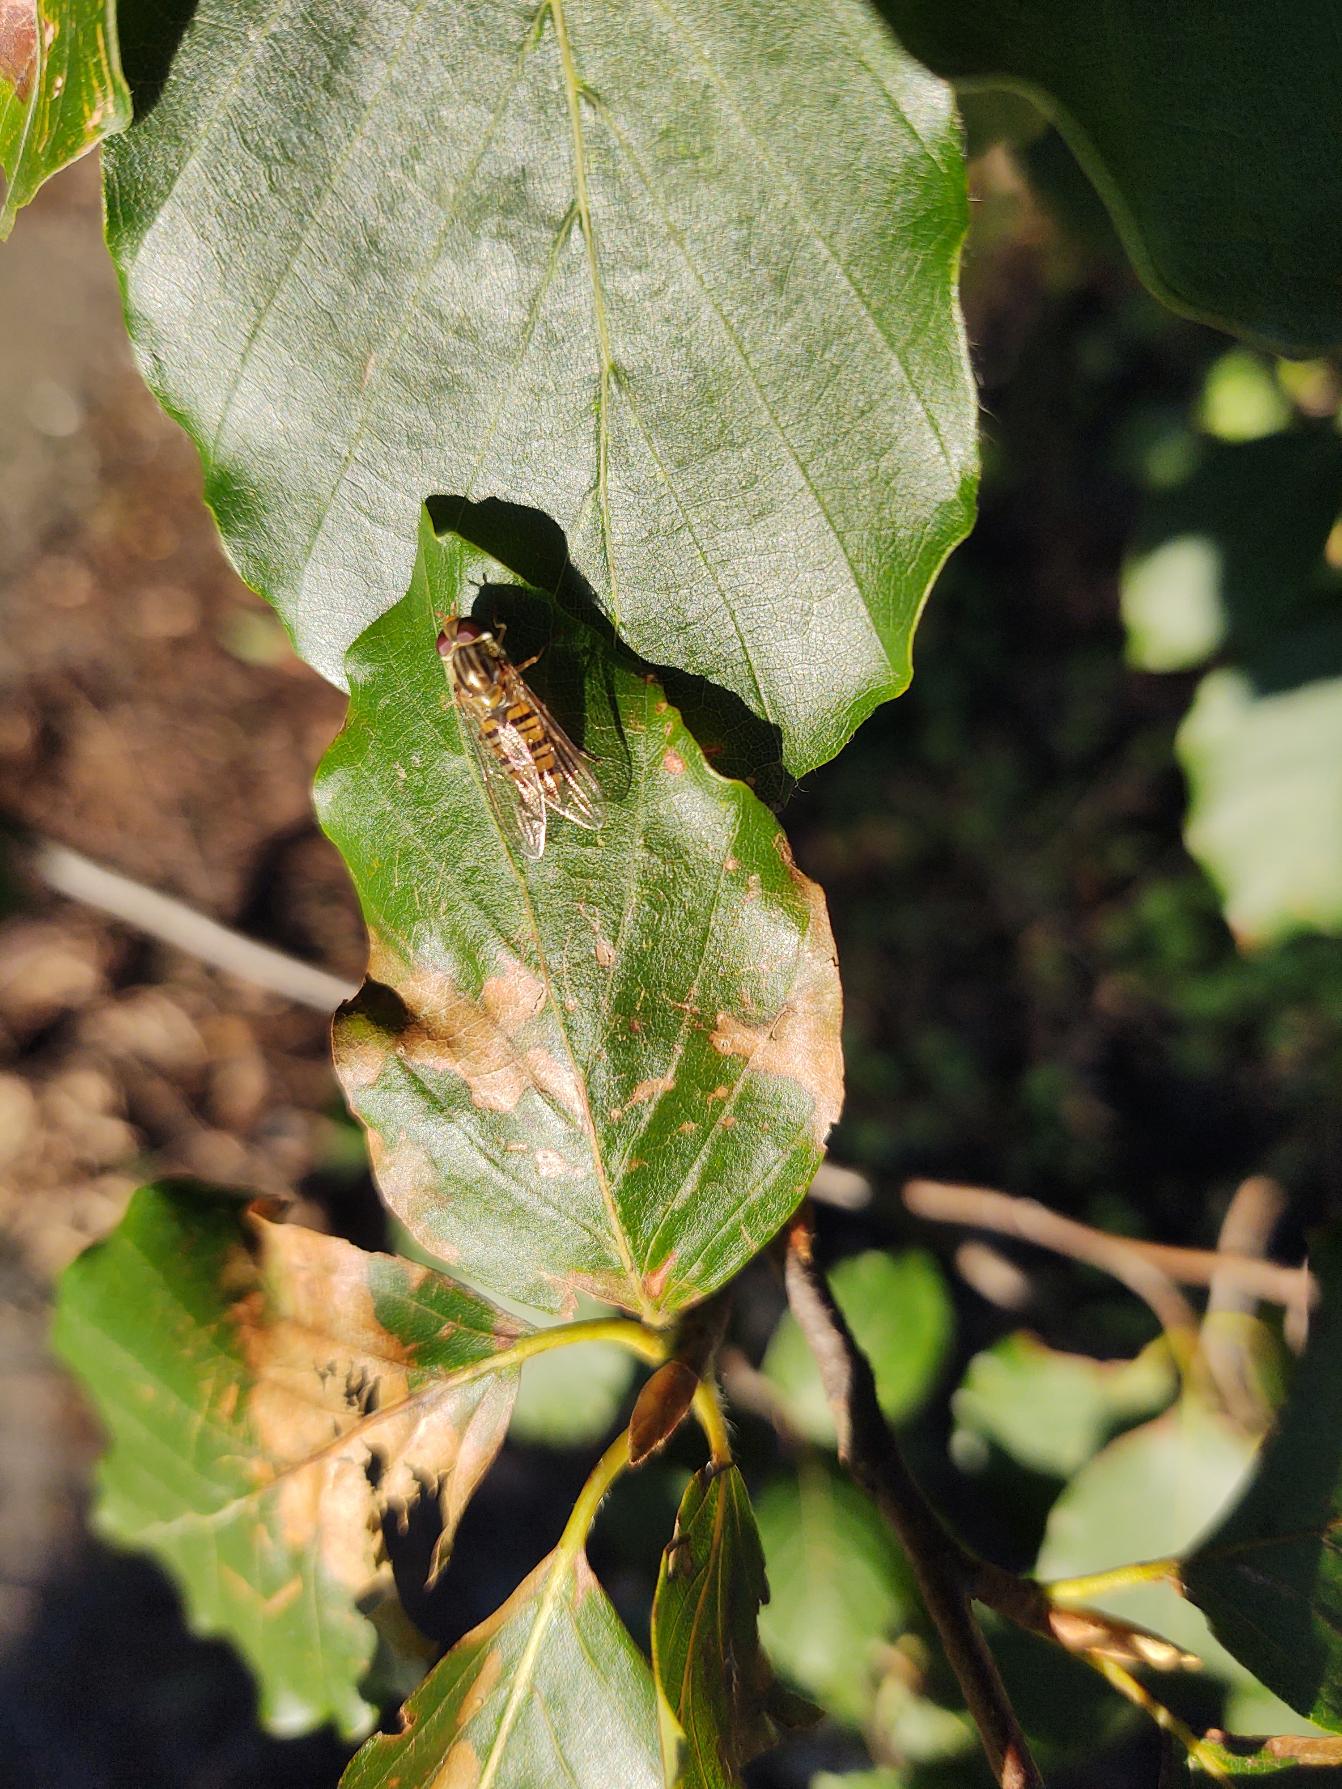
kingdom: Animalia
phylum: Arthropoda
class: Insecta
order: Diptera
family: Syrphidae
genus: Episyrphus
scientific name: Episyrphus balteatus
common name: Dobbeltbåndet svirreflue
